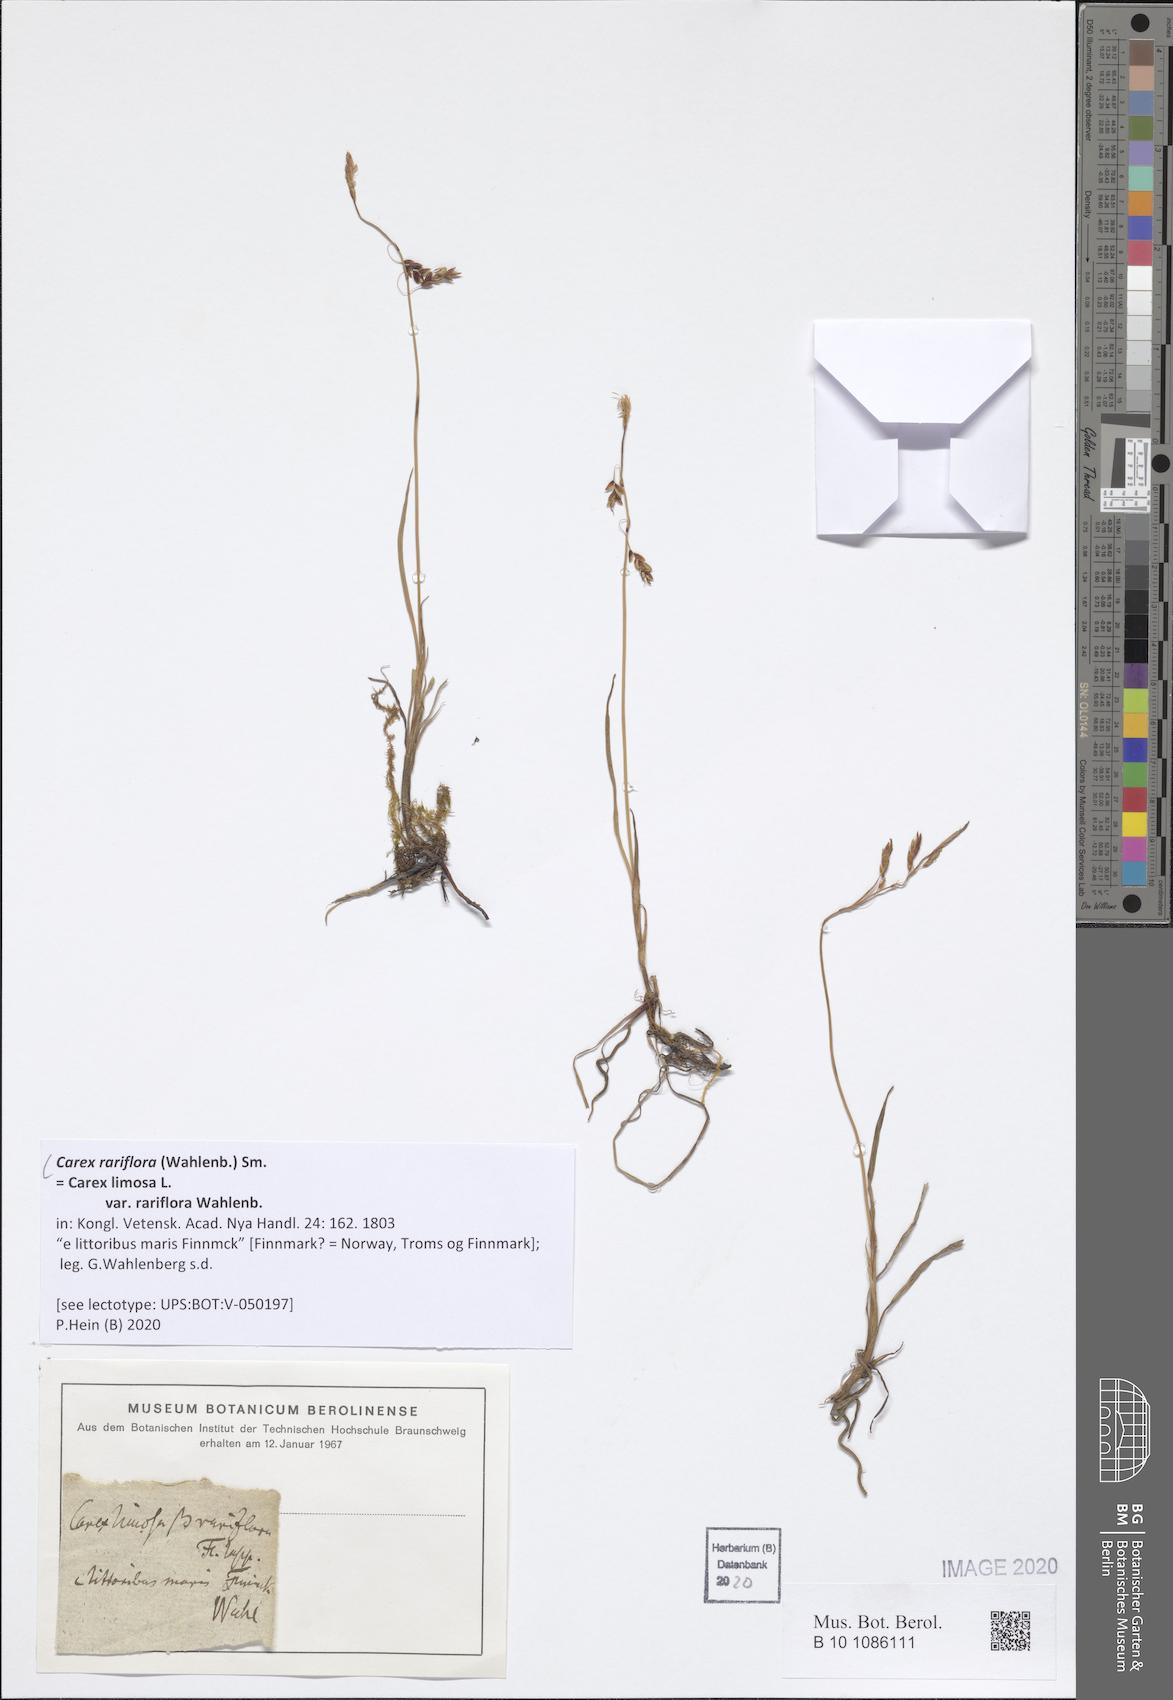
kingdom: Plantae
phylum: Tracheophyta
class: Liliopsida
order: Poales
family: Cyperaceae
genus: Carex
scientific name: Carex rariflora
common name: Loose-flowered alpine sedge
